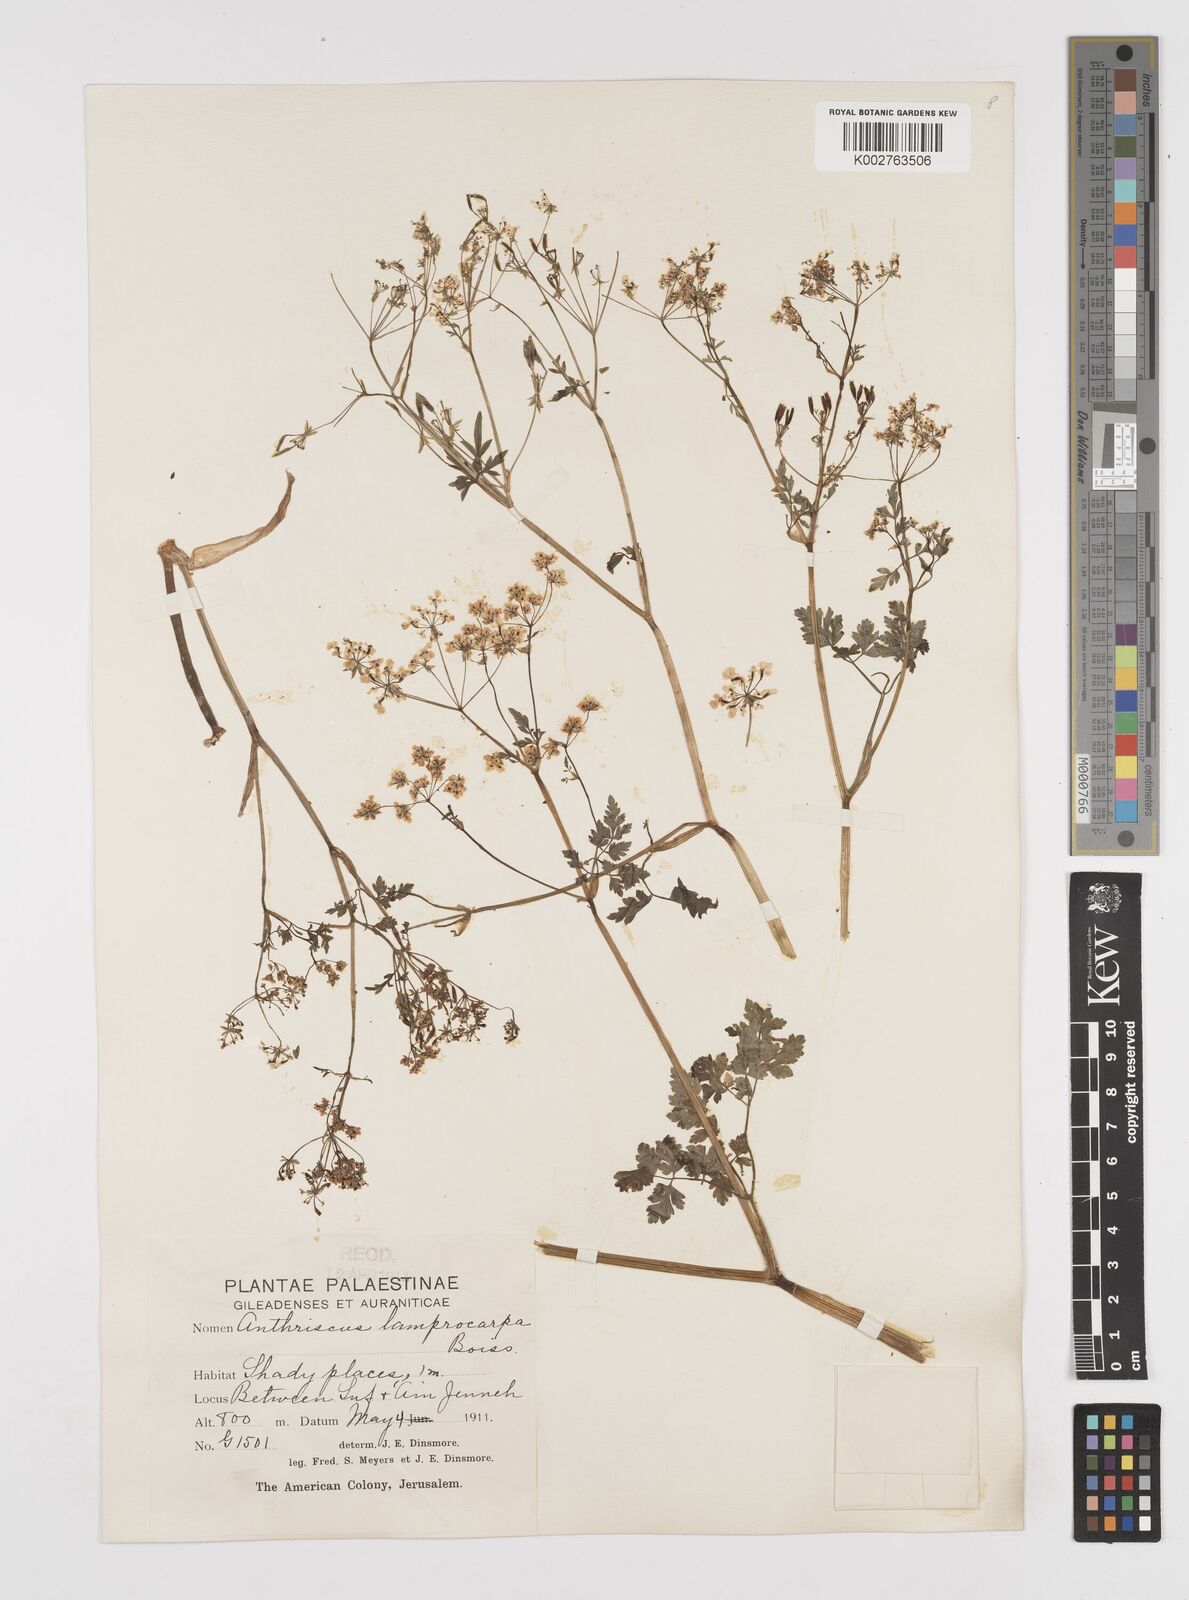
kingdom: Plantae
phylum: Tracheophyta
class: Magnoliopsida
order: Apiales
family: Apiaceae
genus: Anthriscus
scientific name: Anthriscus lamprocarpa
